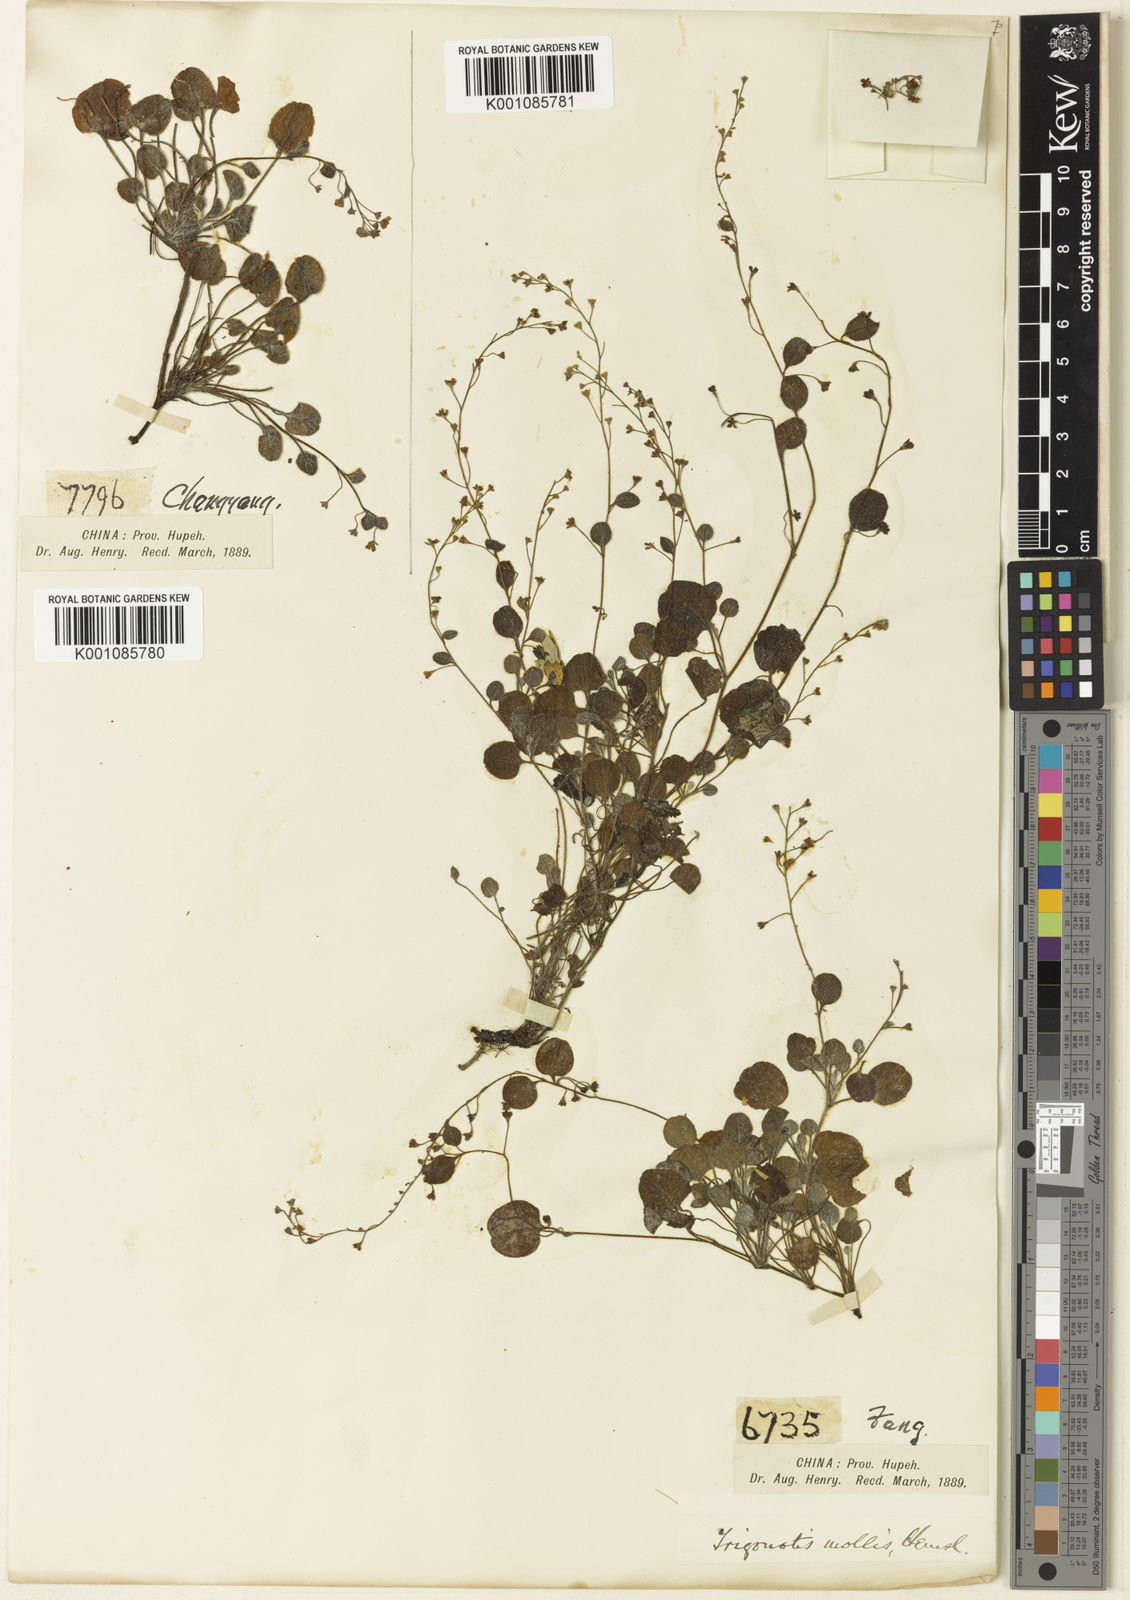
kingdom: Plantae
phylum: Tracheophyta
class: Magnoliopsida
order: Boraginales
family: Boraginaceae
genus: Trigonotis
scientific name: Trigonotis mollis
